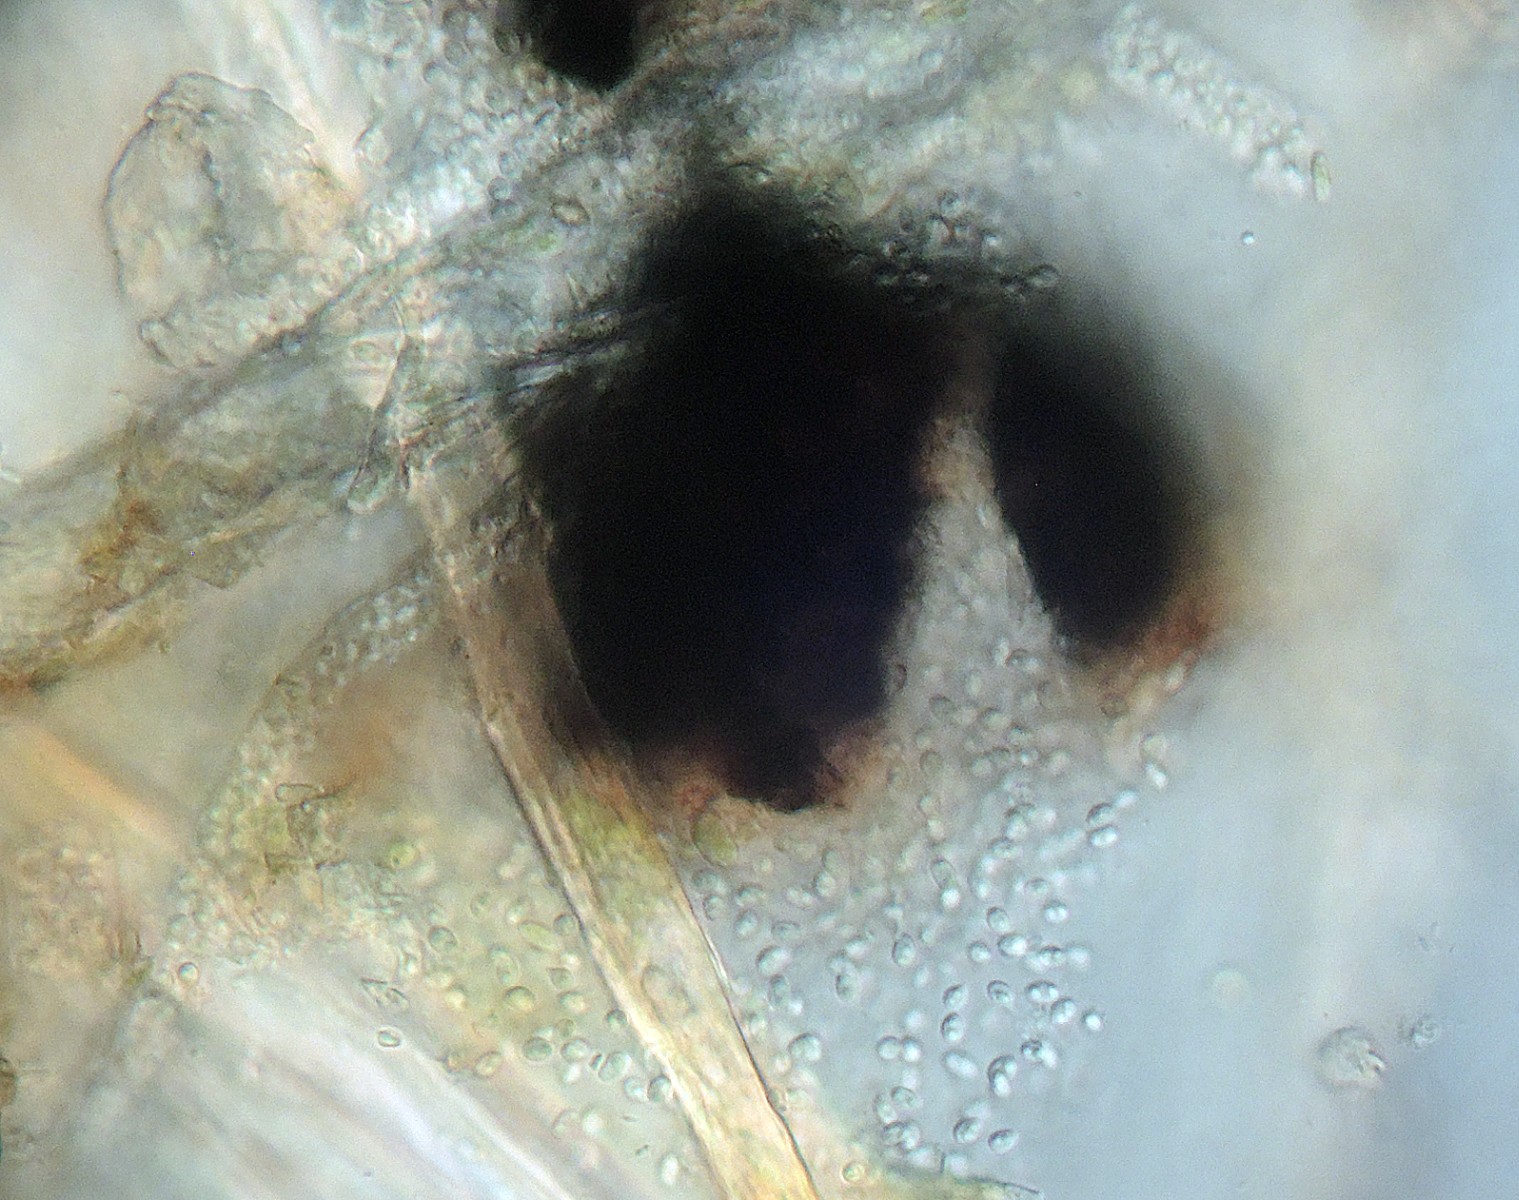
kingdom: Fungi
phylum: Ascomycota
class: Dothideomycetes
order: Monoblastiales
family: Monoblastiaceae
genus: Anisomeridium
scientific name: Anisomeridium polypori
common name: sprække-punktlav
